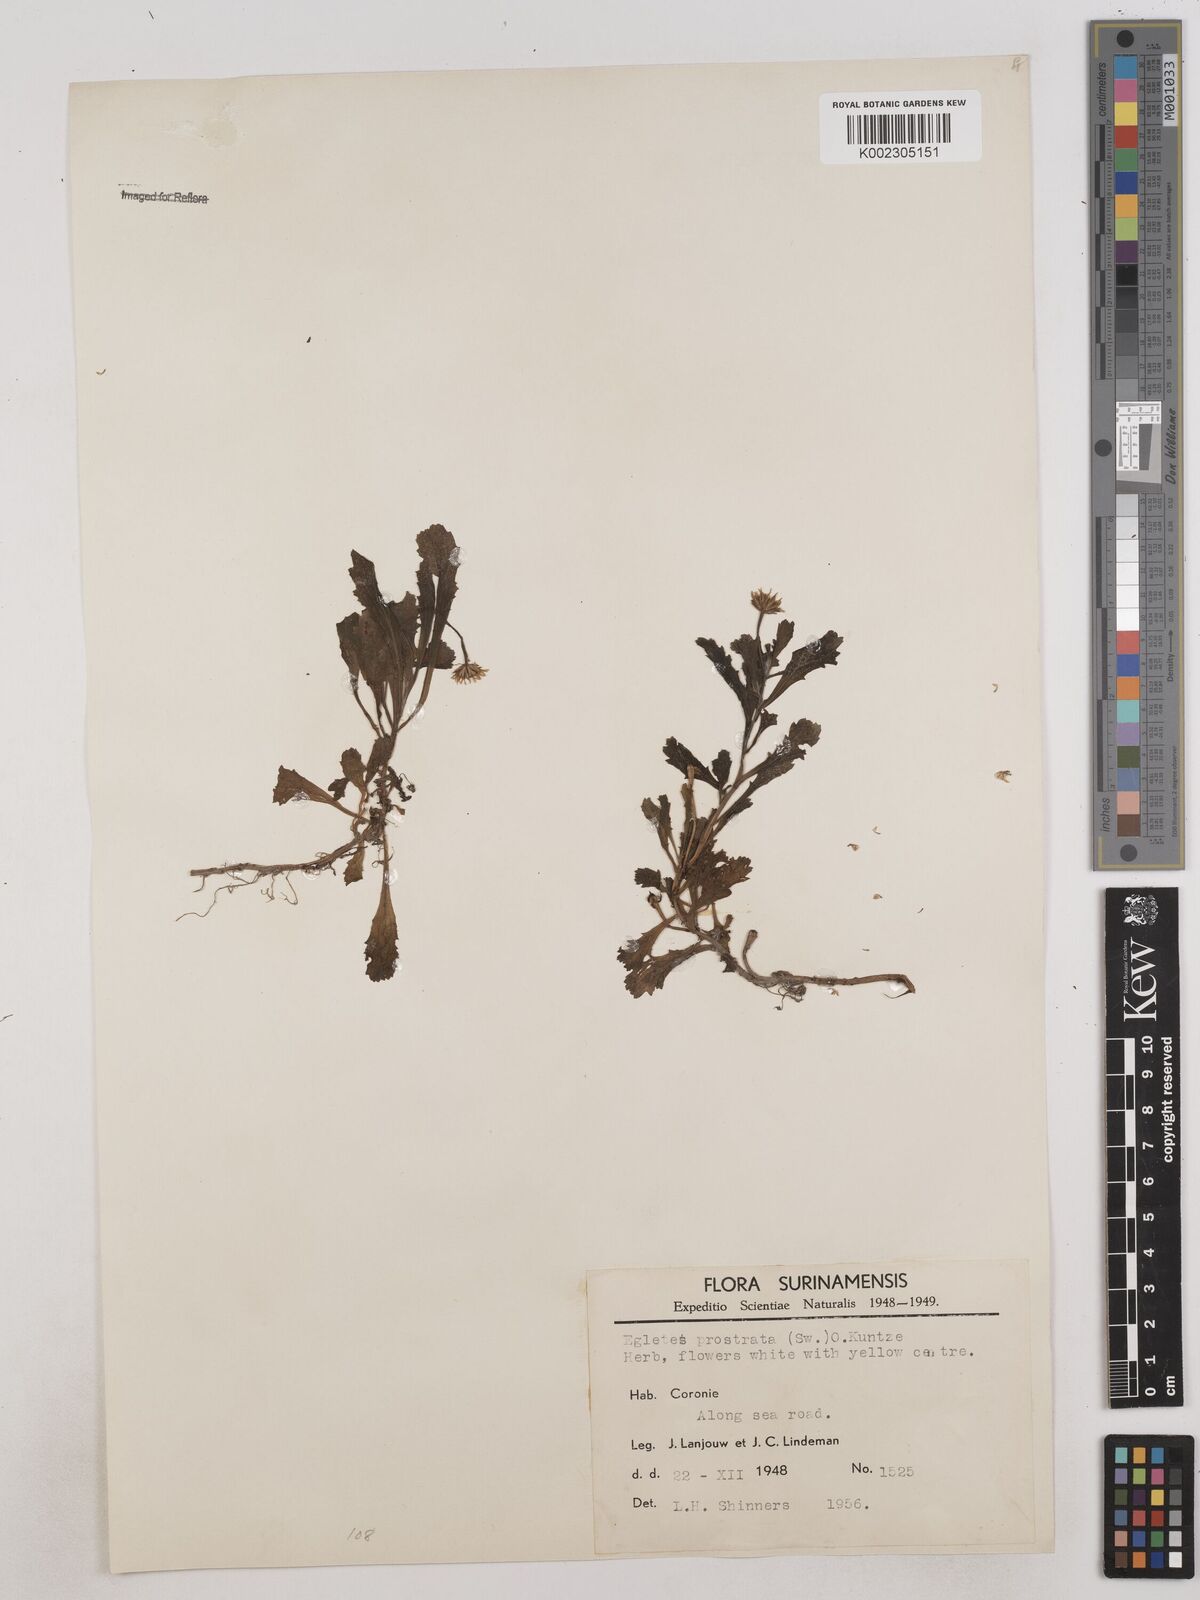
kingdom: Plantae
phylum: Tracheophyta
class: Magnoliopsida
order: Asterales
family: Asteraceae
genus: Egletes
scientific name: Egletes prostrata
